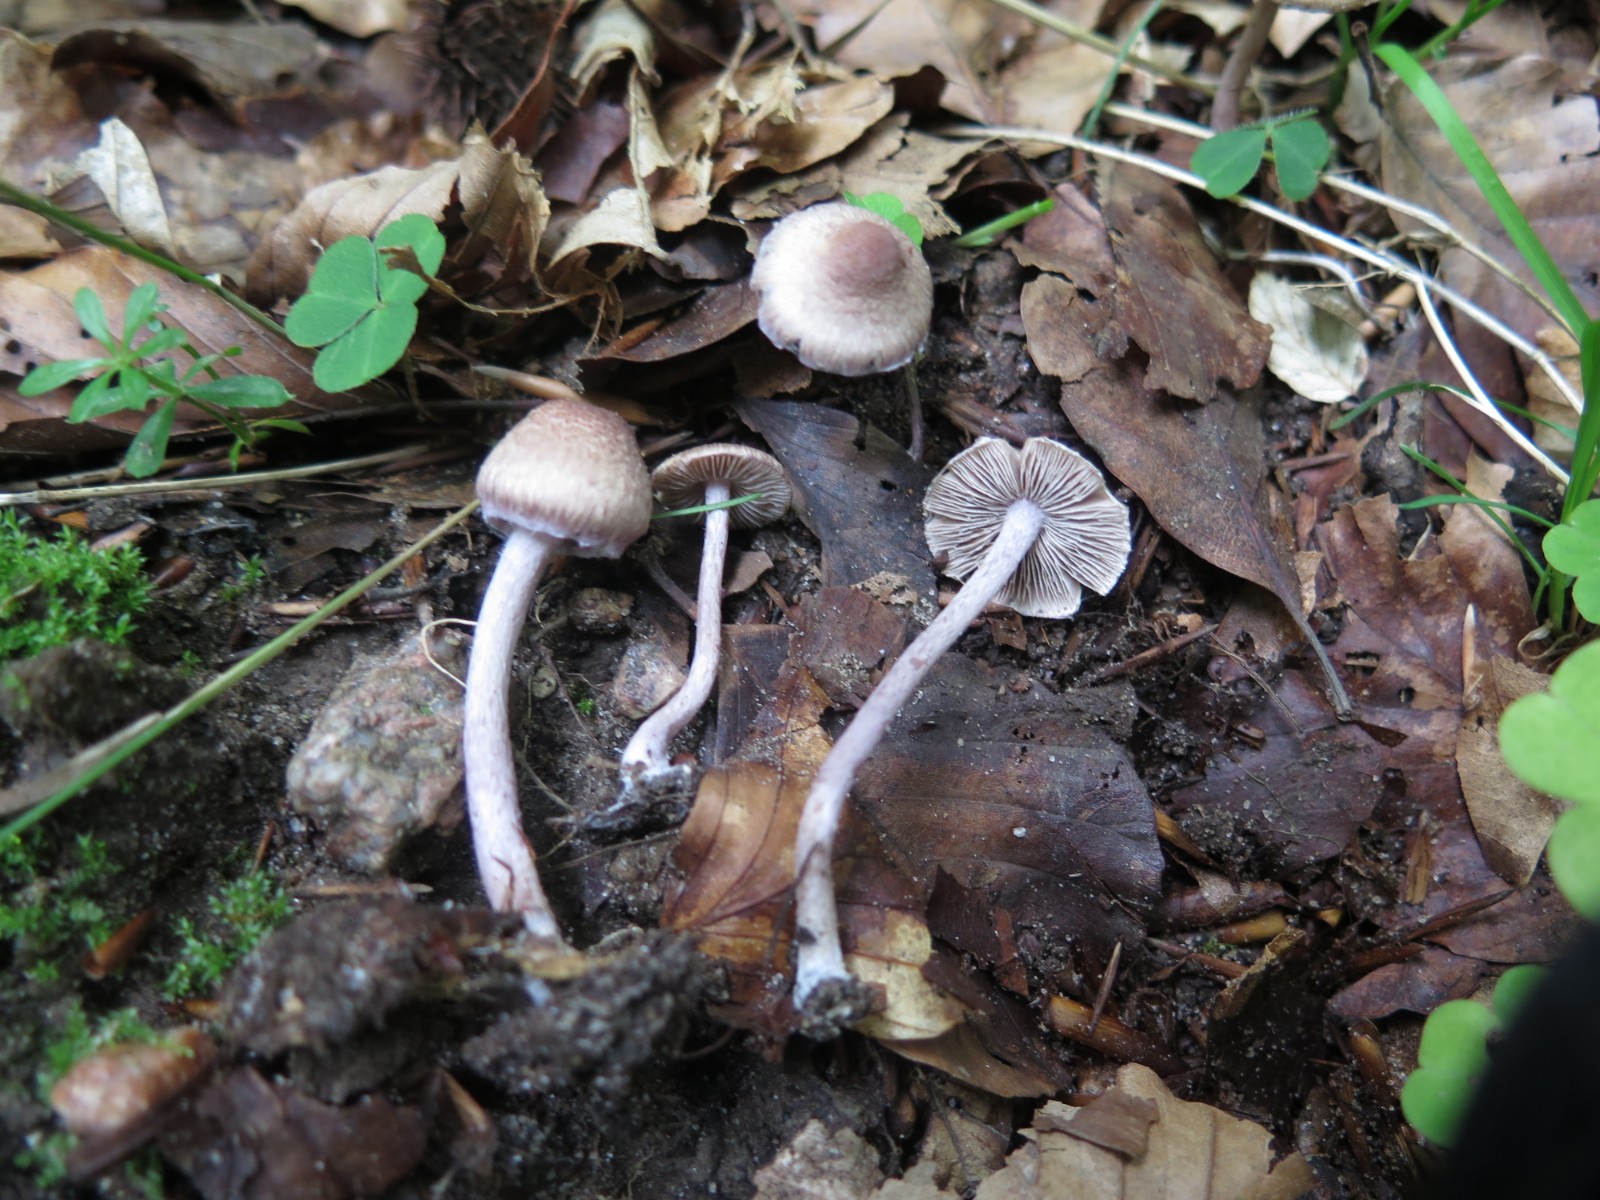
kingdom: Fungi
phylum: Basidiomycota
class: Agaricomycetes
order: Agaricales
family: Inocybaceae
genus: Inocybe
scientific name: Inocybe griseolilacina
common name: lillagrå trævlhat
